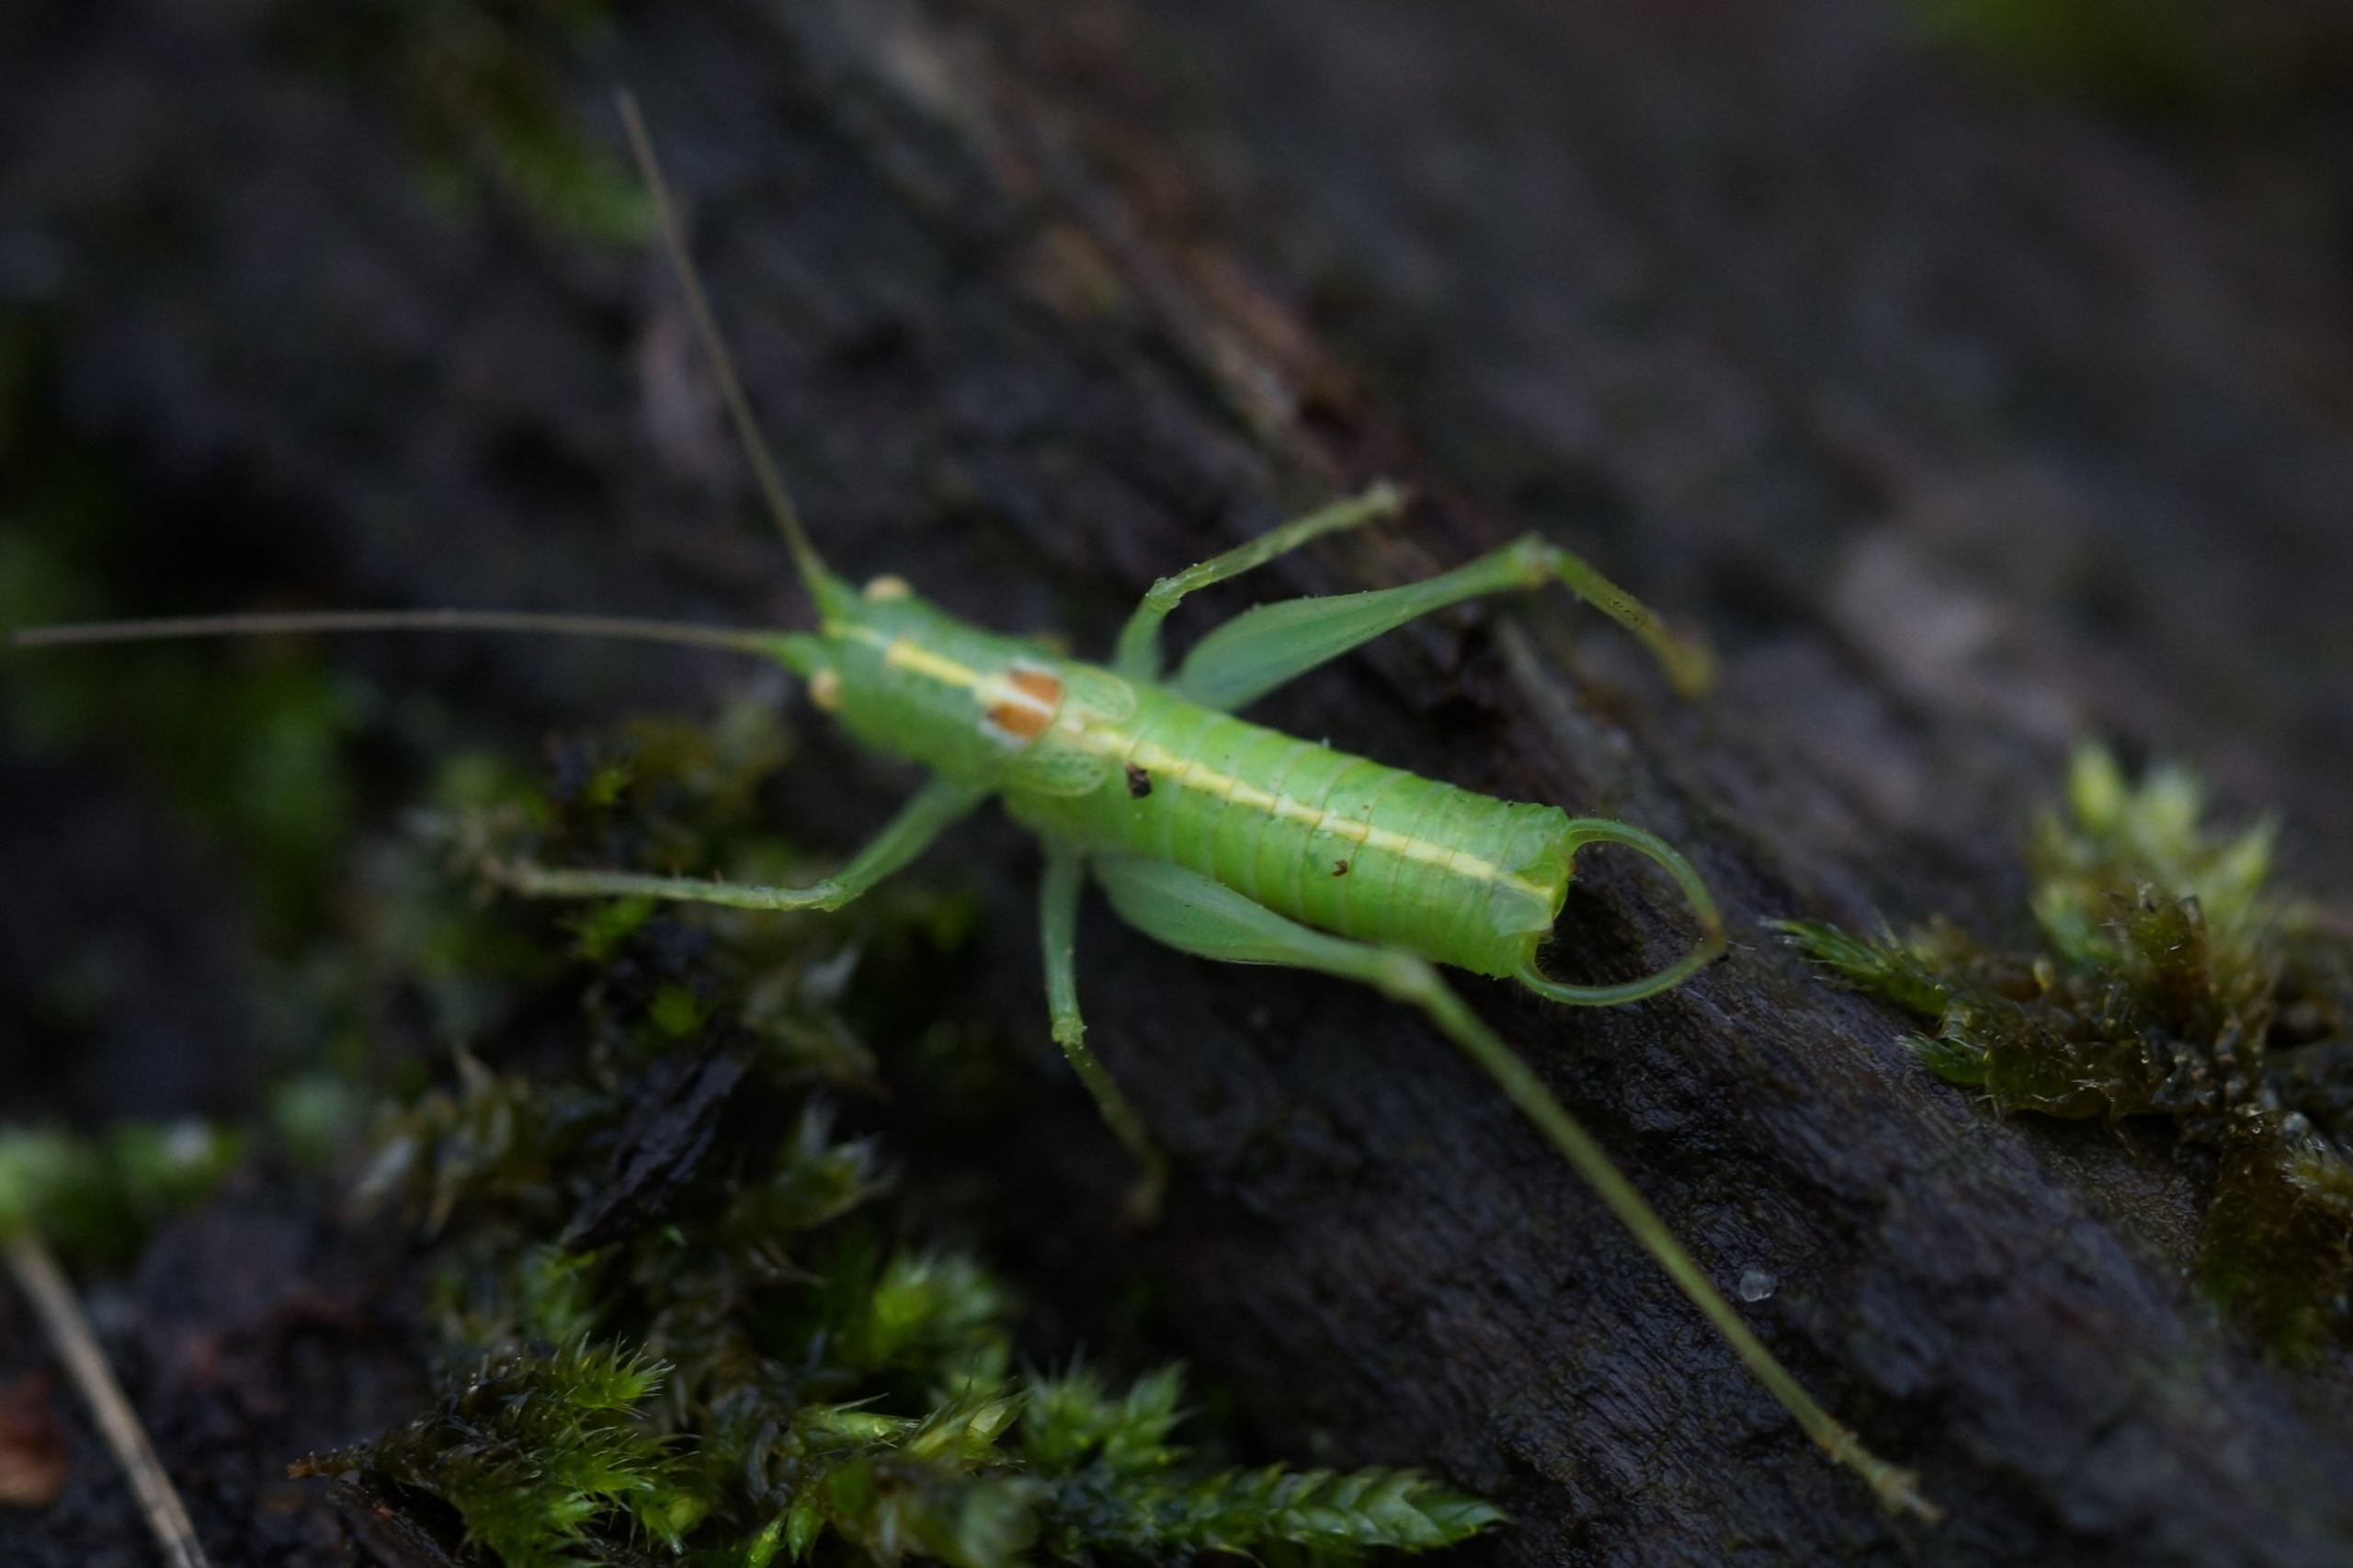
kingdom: Animalia
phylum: Arthropoda
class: Insecta
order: Orthoptera
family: Tettigoniidae
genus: Meconema
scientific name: Meconema meridionale
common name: Kortvinget egegræshoppe
